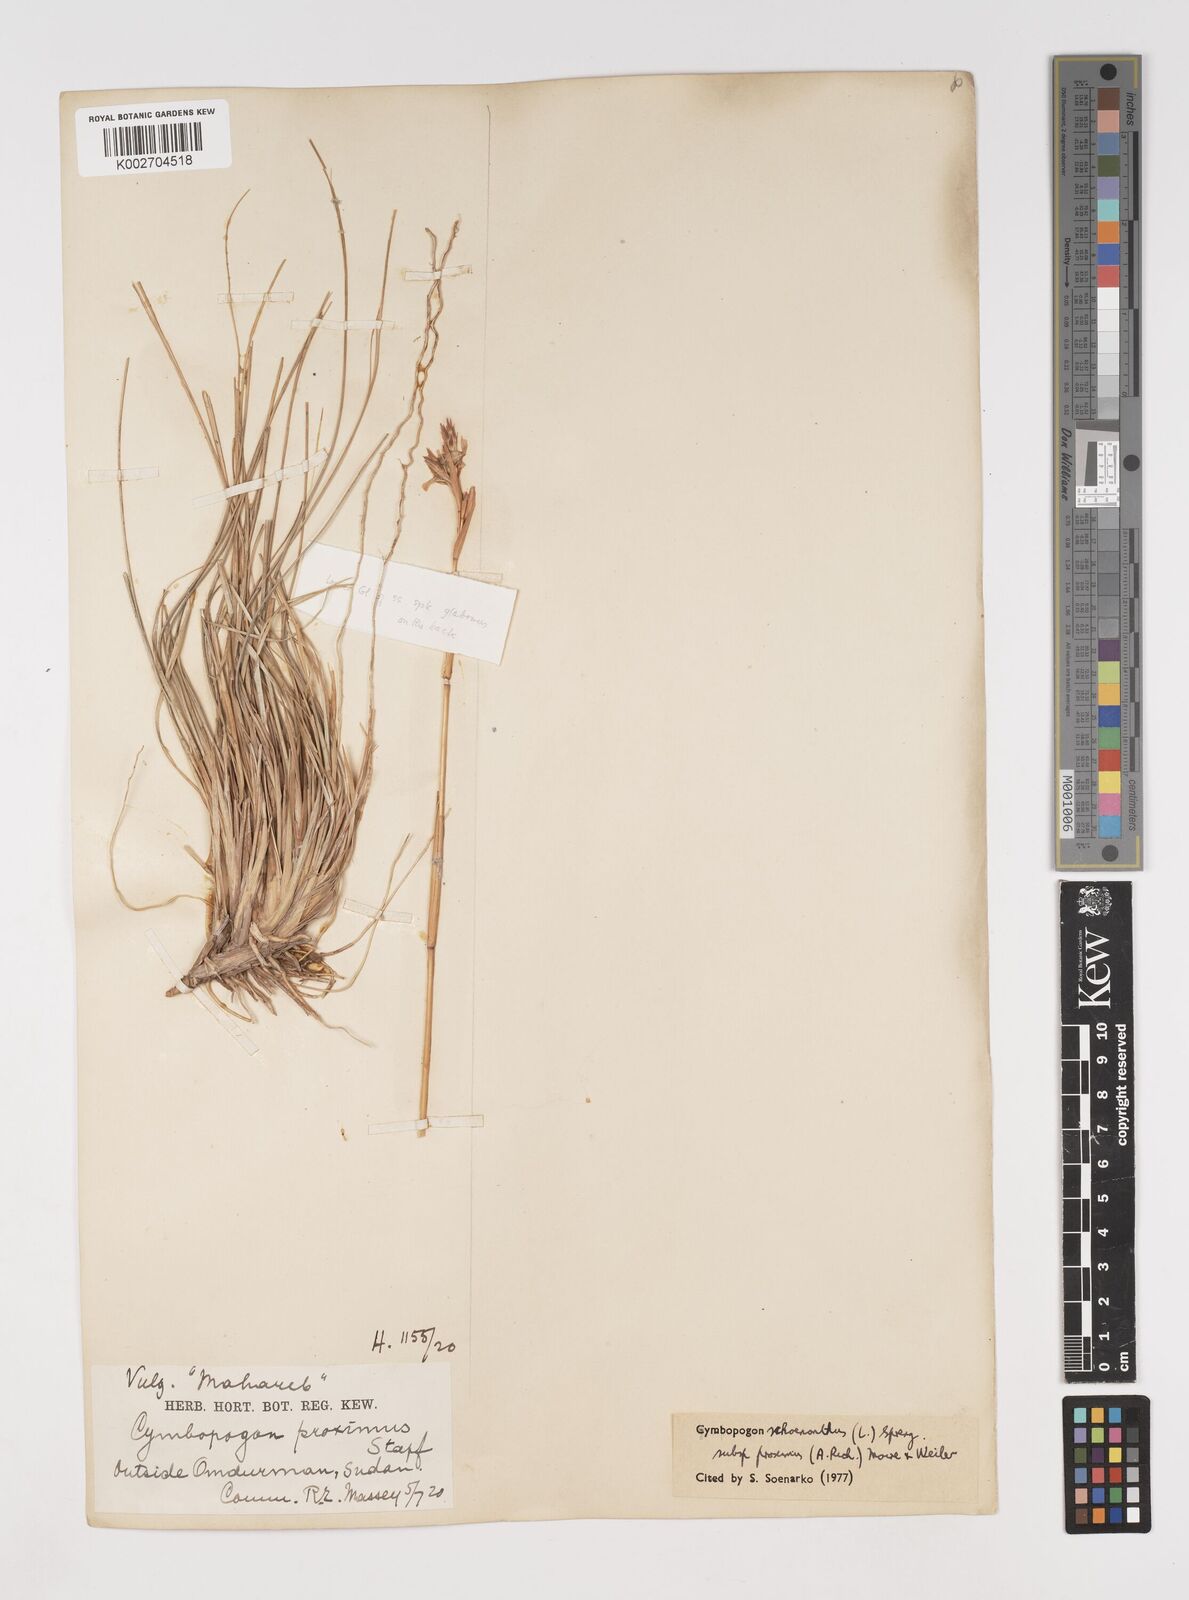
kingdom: Plantae
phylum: Tracheophyta
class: Liliopsida
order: Poales
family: Poaceae
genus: Cymbopogon
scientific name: Cymbopogon schoenanthus
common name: Geranium grass
